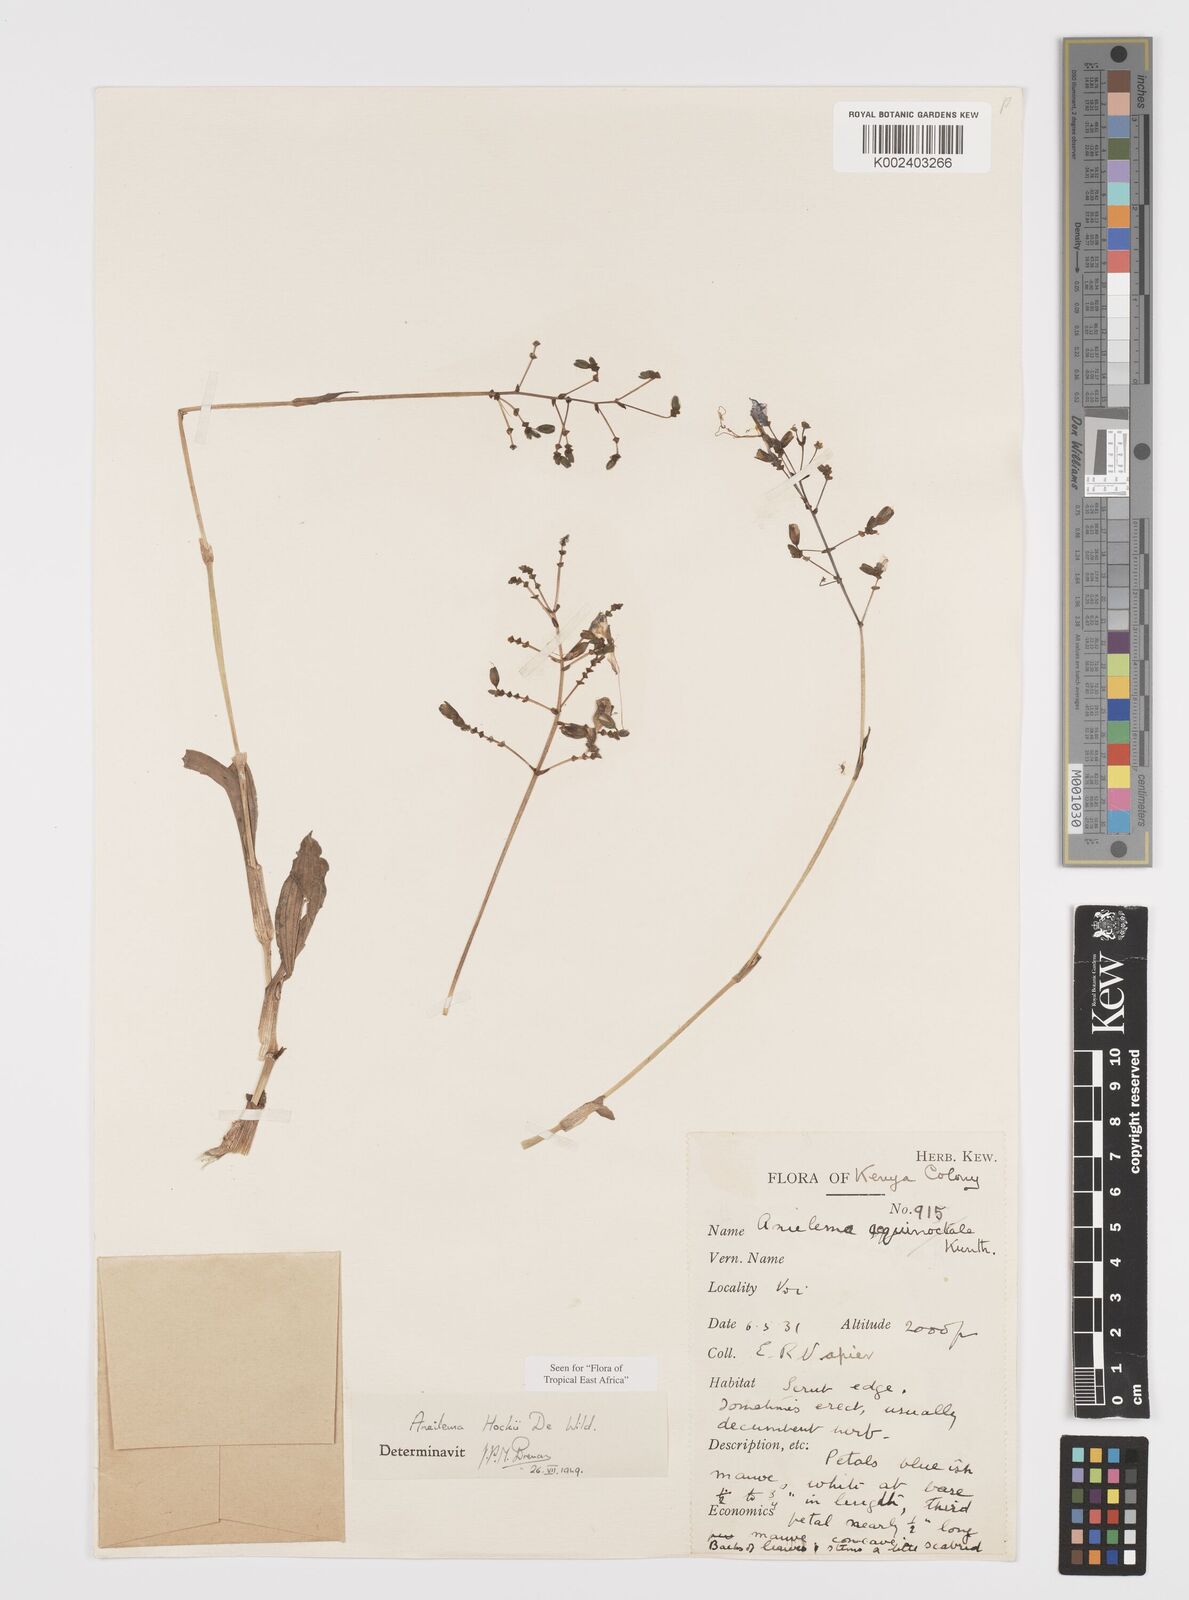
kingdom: Plantae
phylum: Tracheophyta
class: Liliopsida
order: Commelinales
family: Commelinaceae
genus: Aneilema
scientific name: Aneilema hockii
